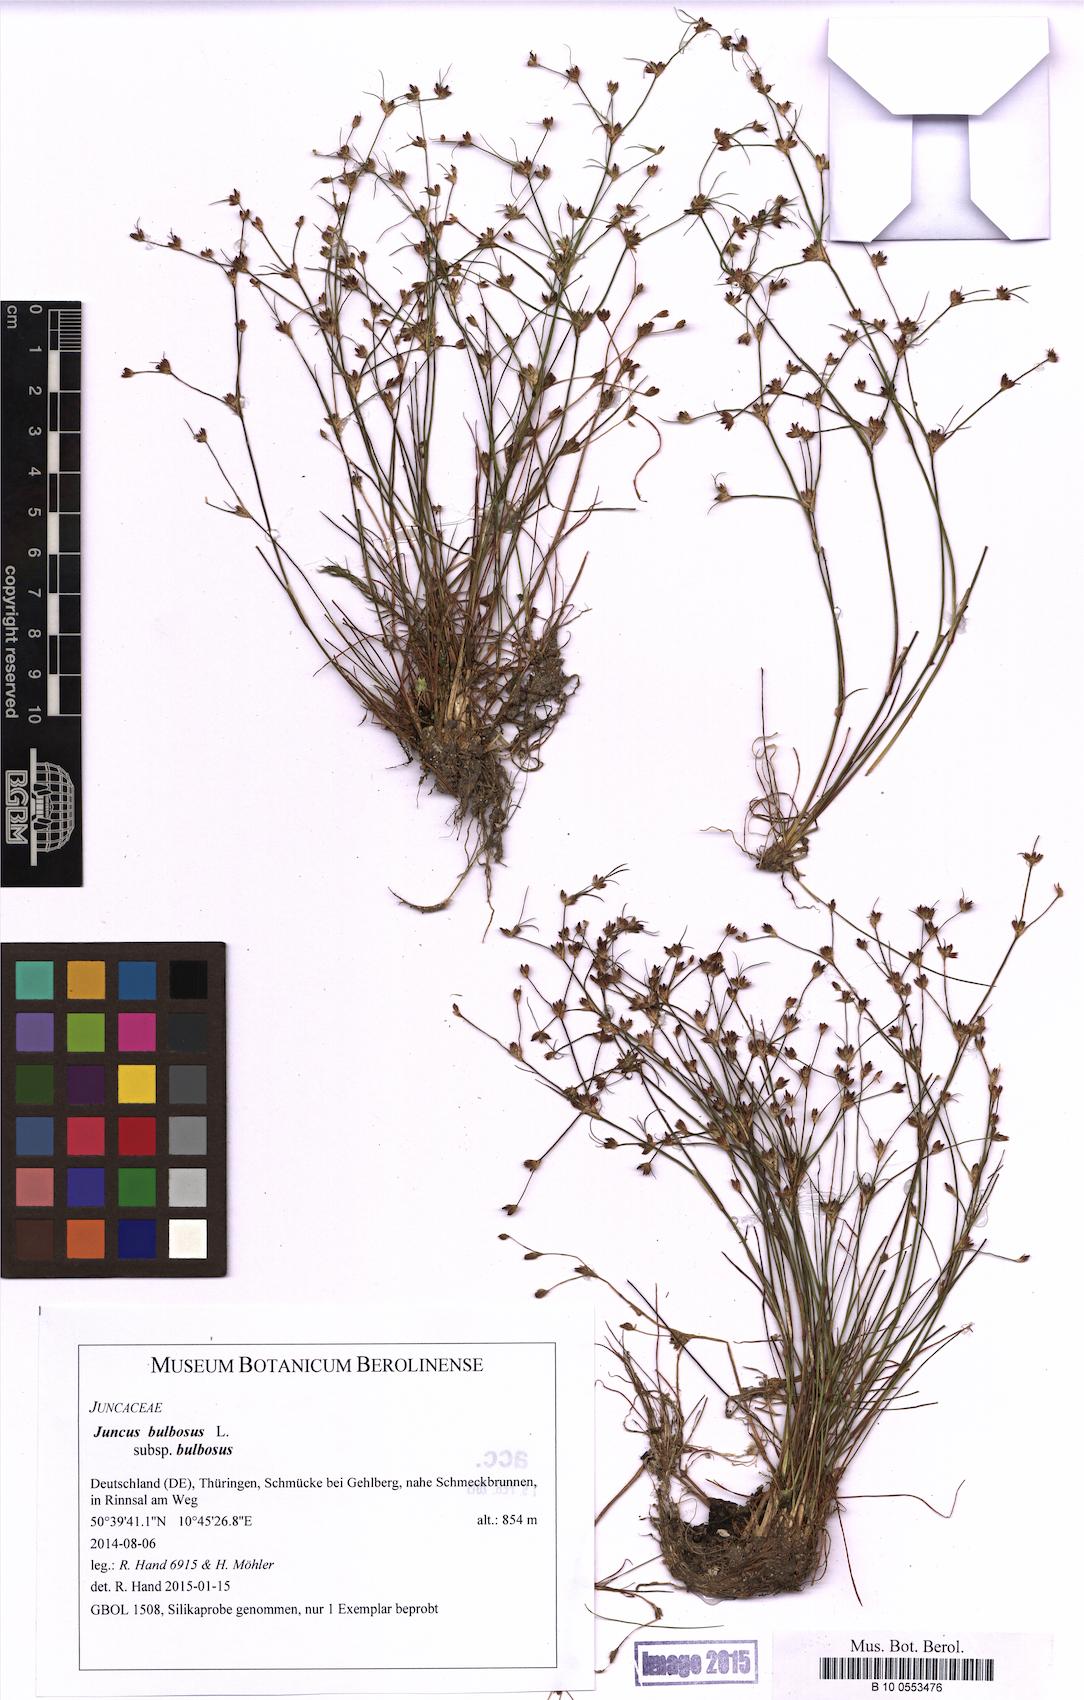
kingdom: Plantae
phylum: Tracheophyta
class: Liliopsida
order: Poales
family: Juncaceae
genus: Juncus
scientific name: Juncus bulbosus
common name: Bulbous rush
